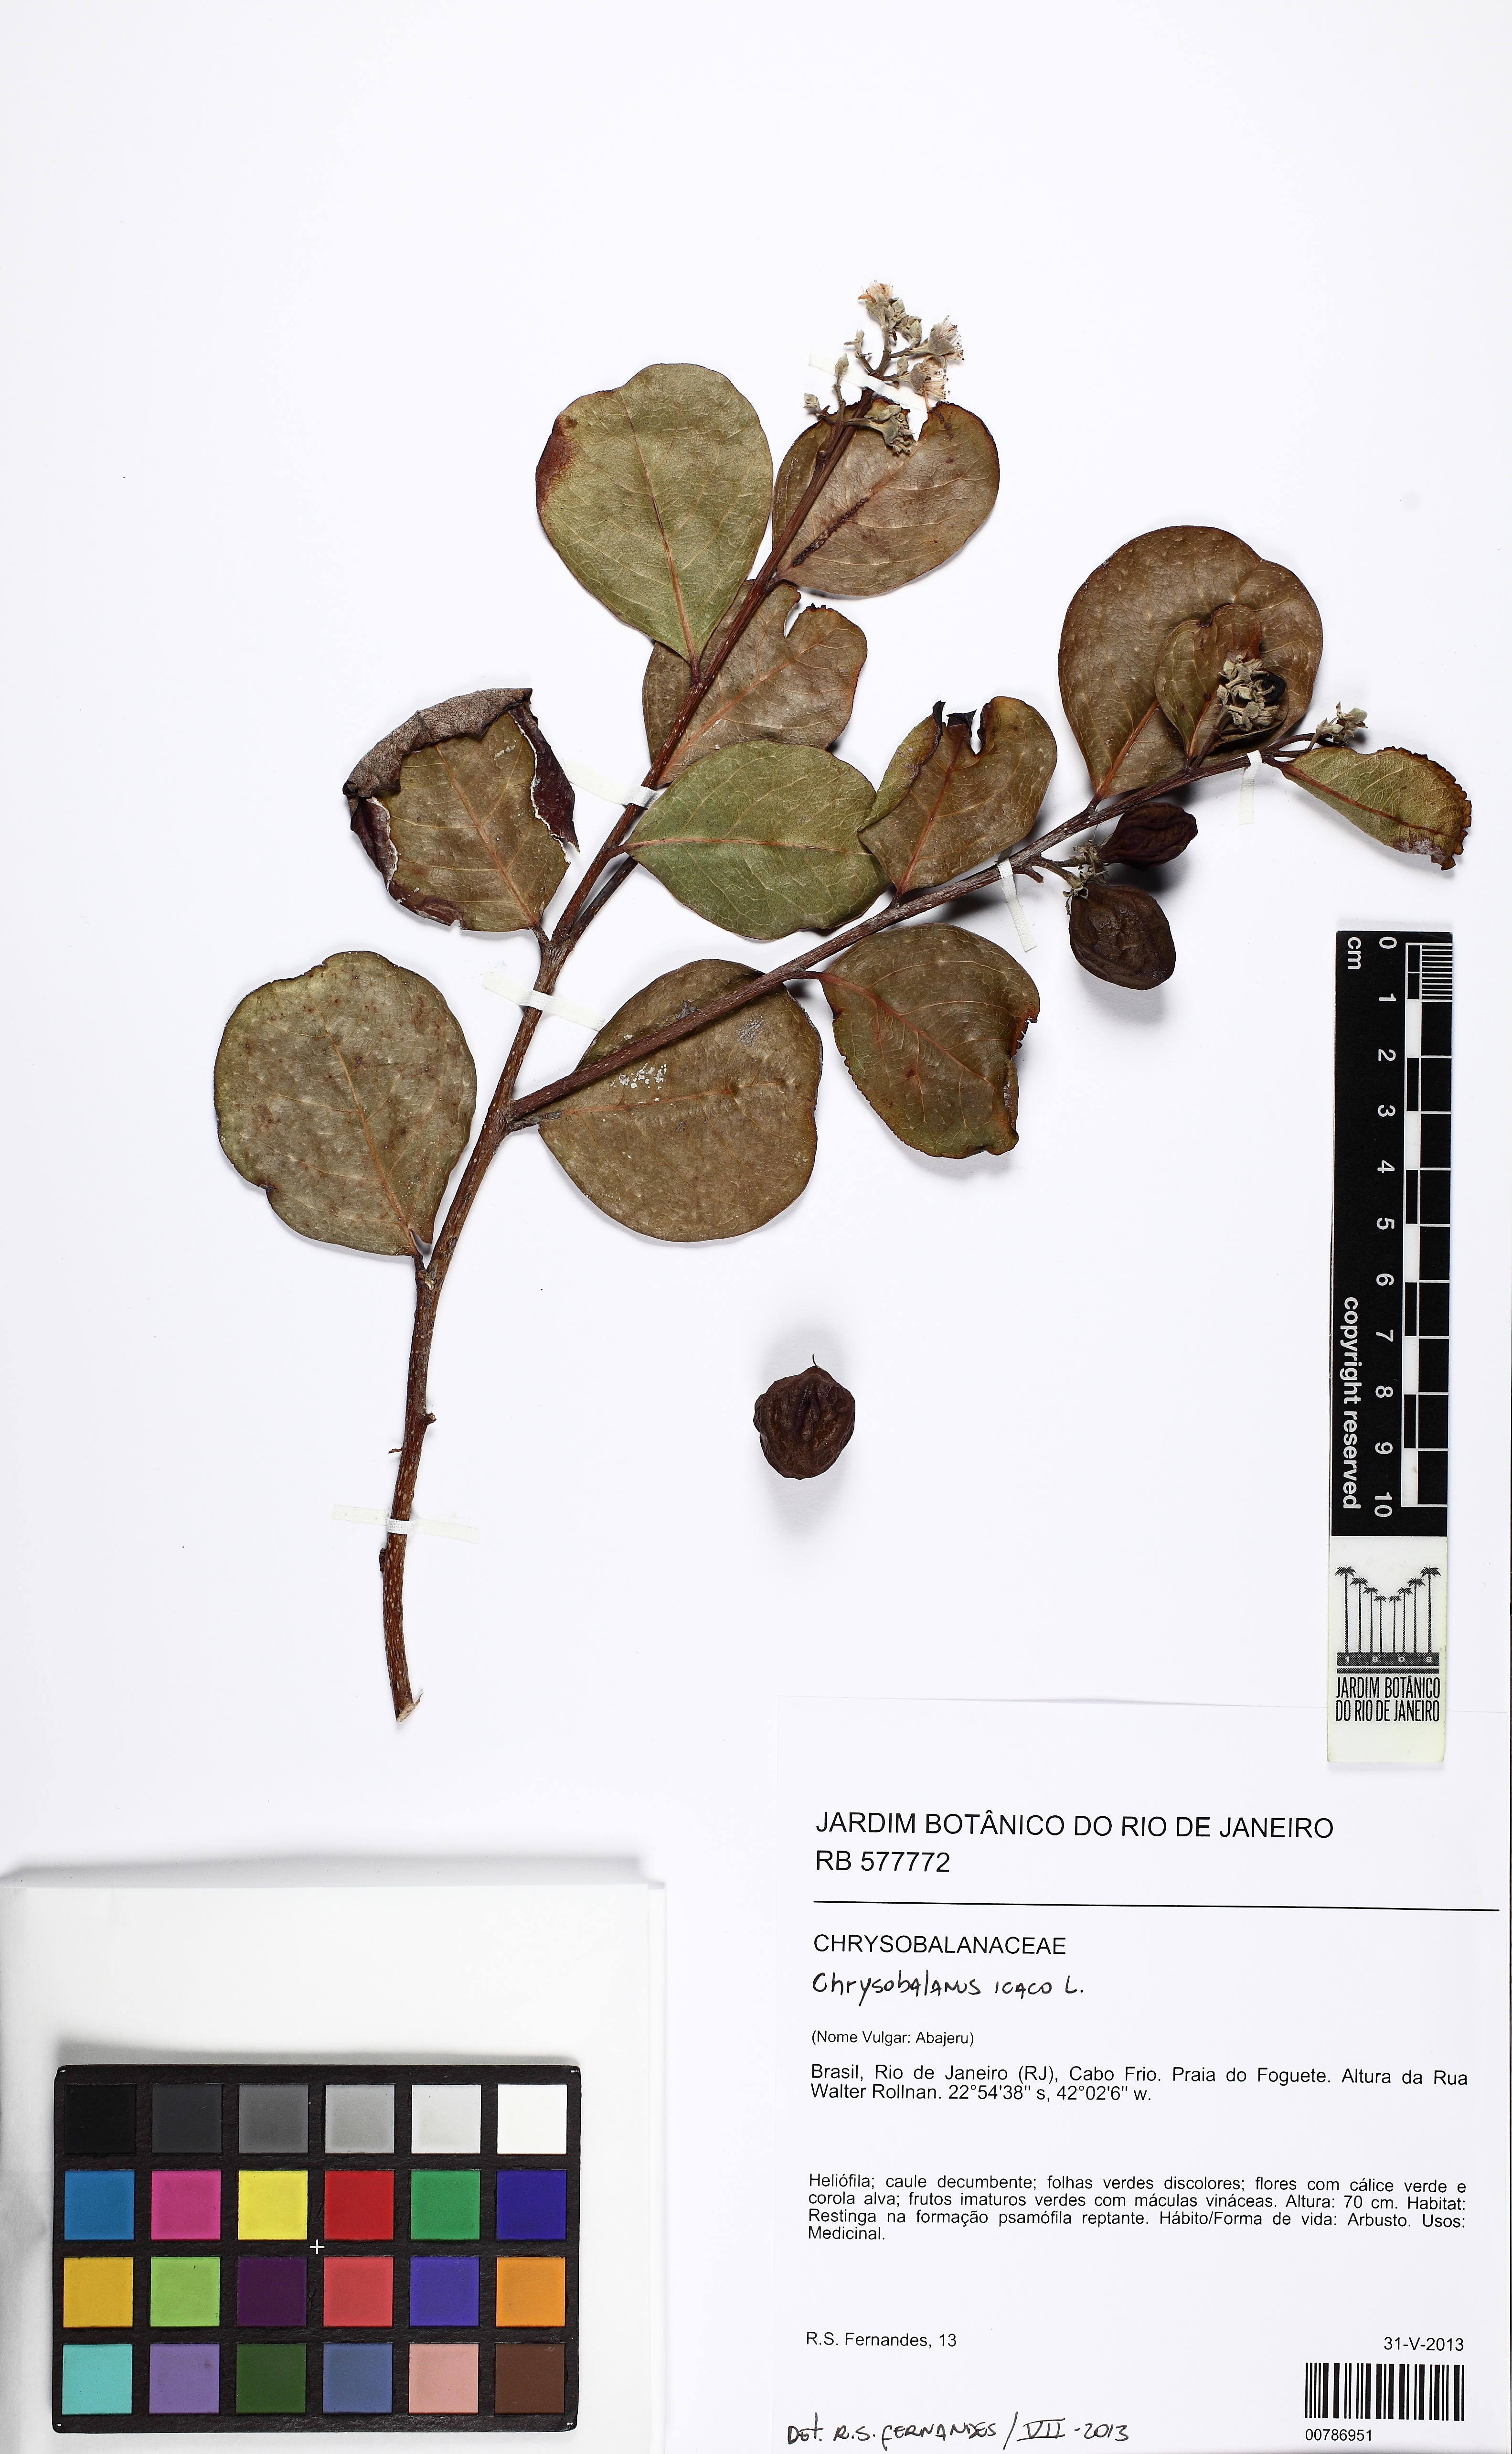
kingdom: Plantae
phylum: Tracheophyta
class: Magnoliopsida
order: Malpighiales
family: Chrysobalanaceae
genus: Chrysobalanus
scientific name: Chrysobalanus icaco
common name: Coco plum
